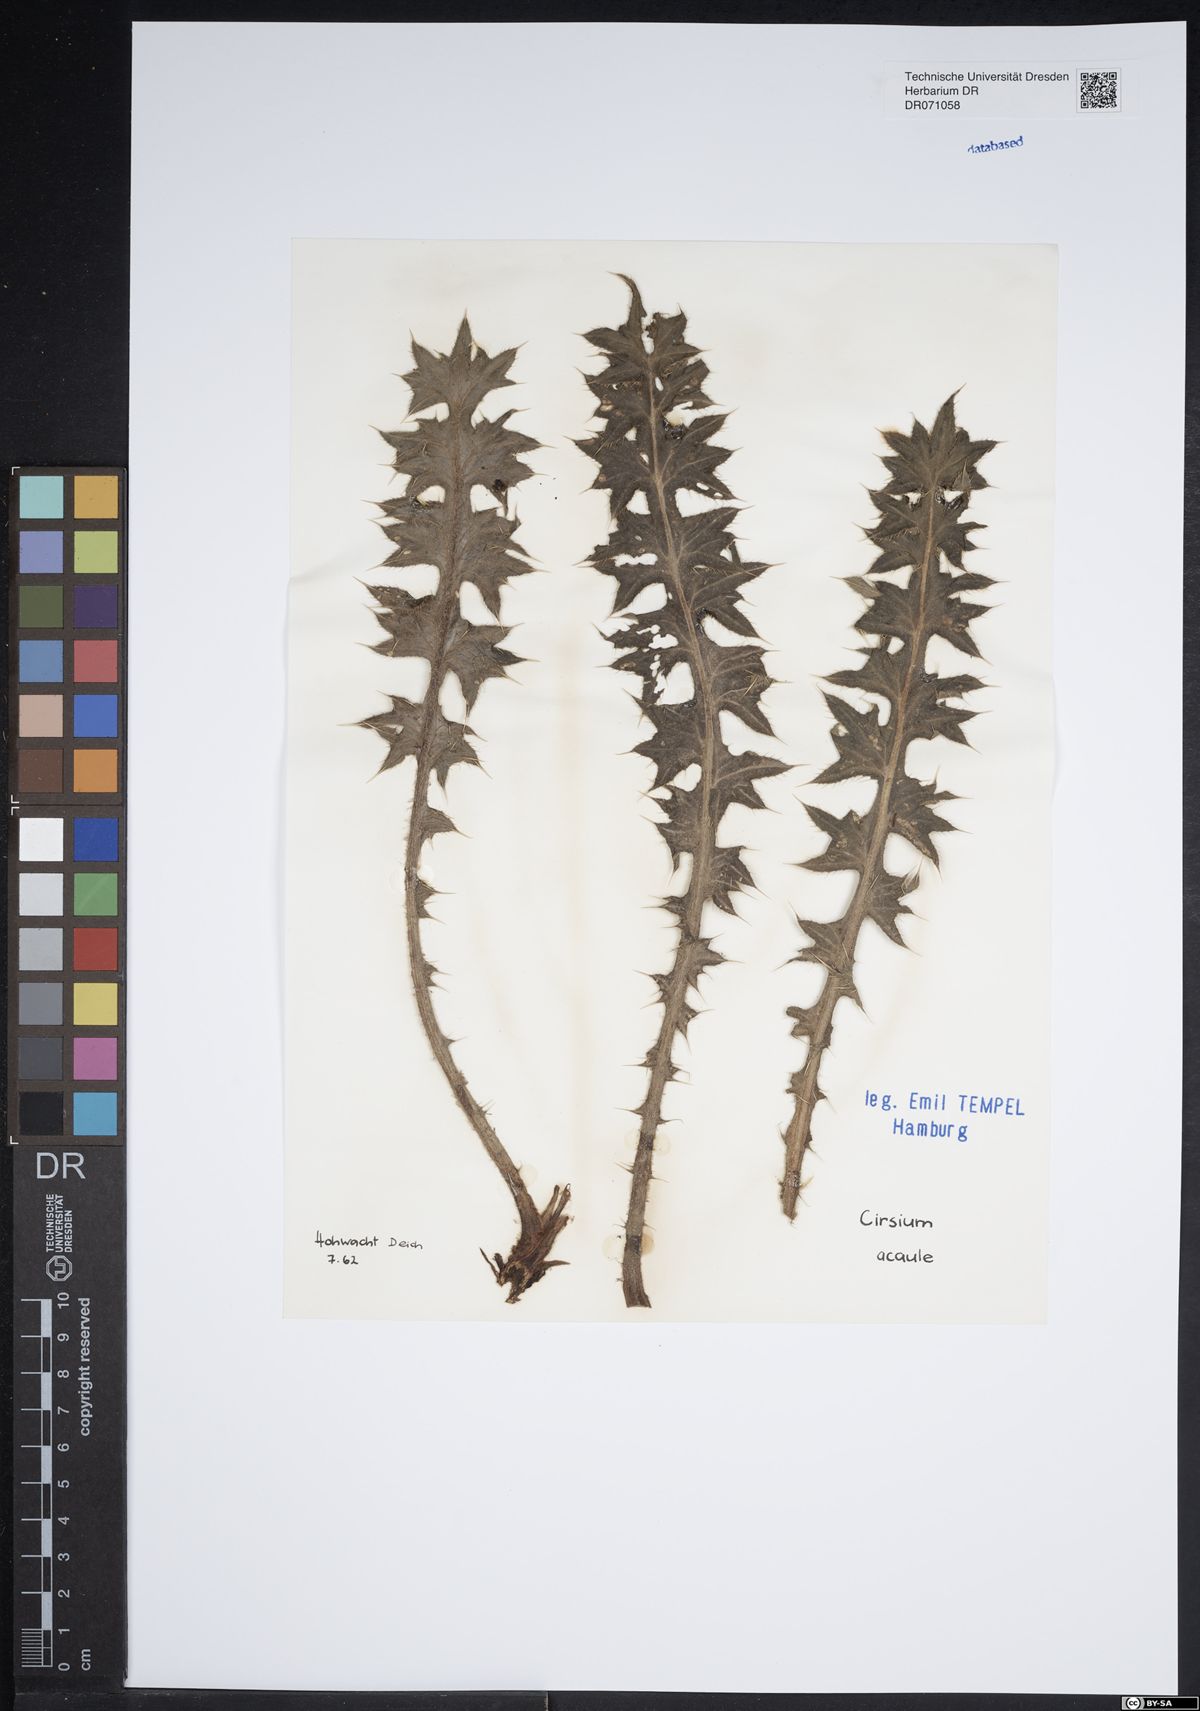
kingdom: Plantae
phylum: Tracheophyta
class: Magnoliopsida
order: Asterales
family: Asteraceae
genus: Cirsium
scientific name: Cirsium acaule
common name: Dwarf thistle
